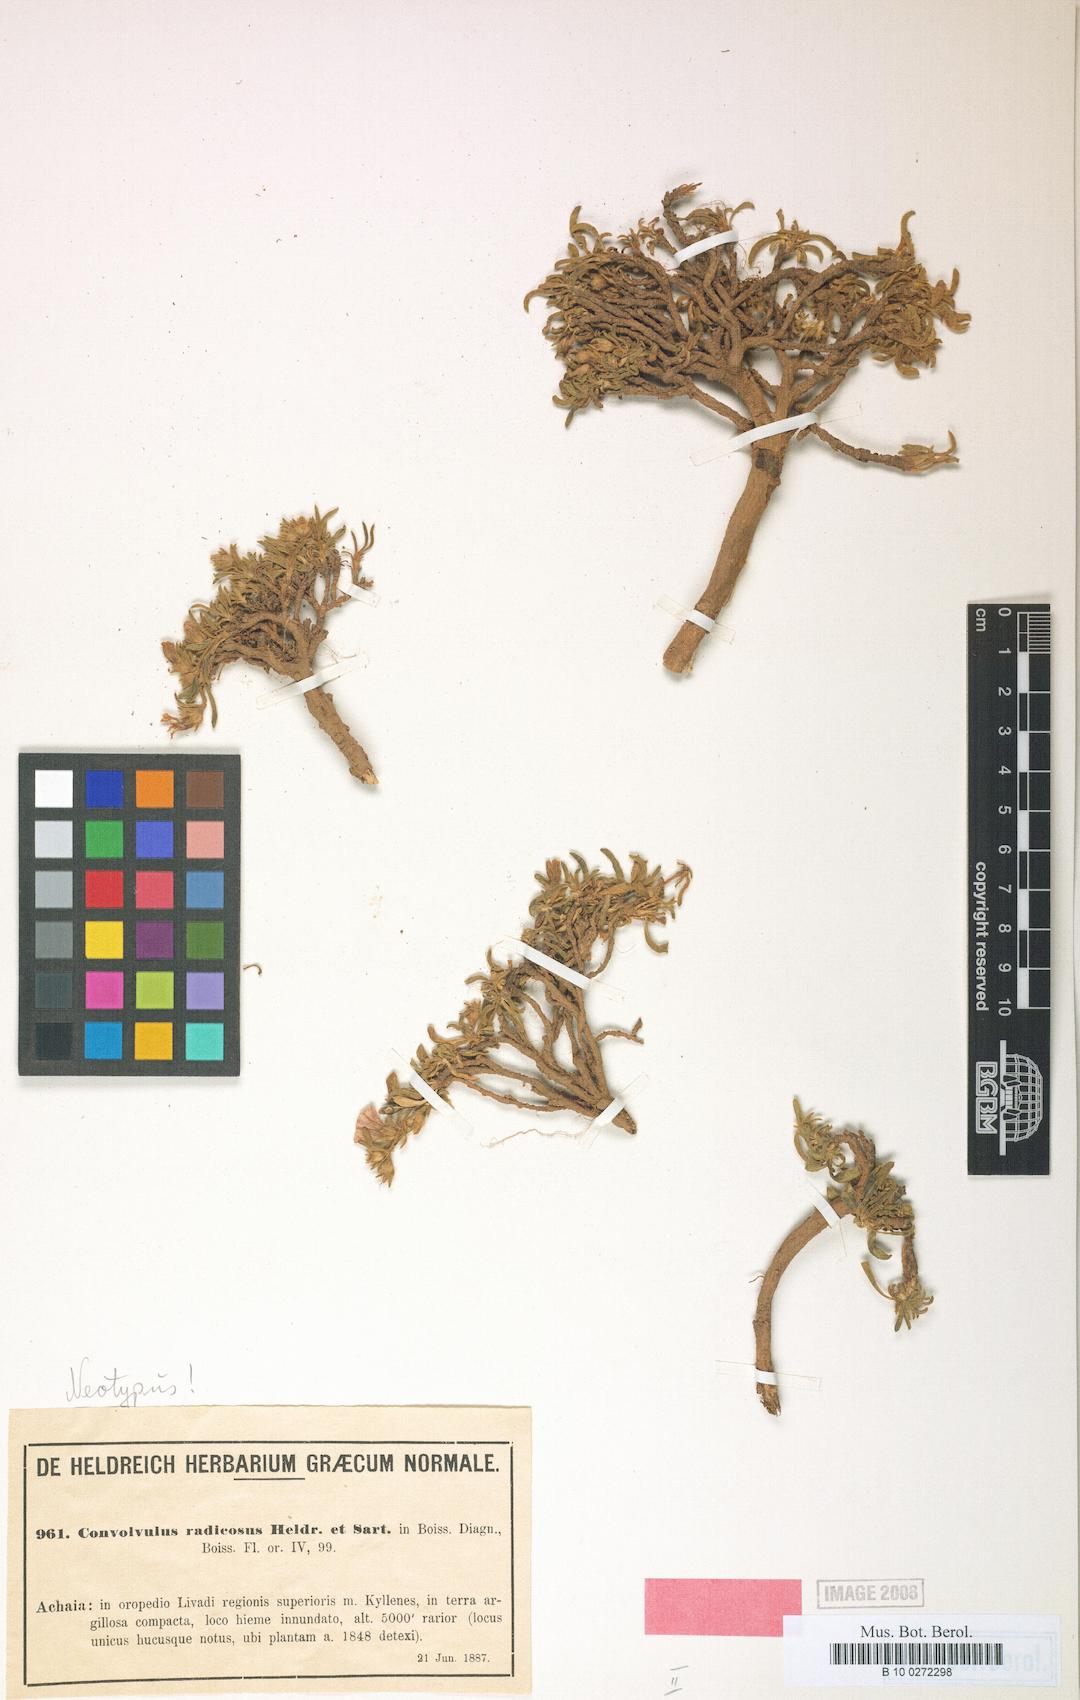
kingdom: Plantae
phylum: Tracheophyta
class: Magnoliopsida
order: Solanales
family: Convolvulaceae
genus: Convolvulus
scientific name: Convolvulus libanoticus
